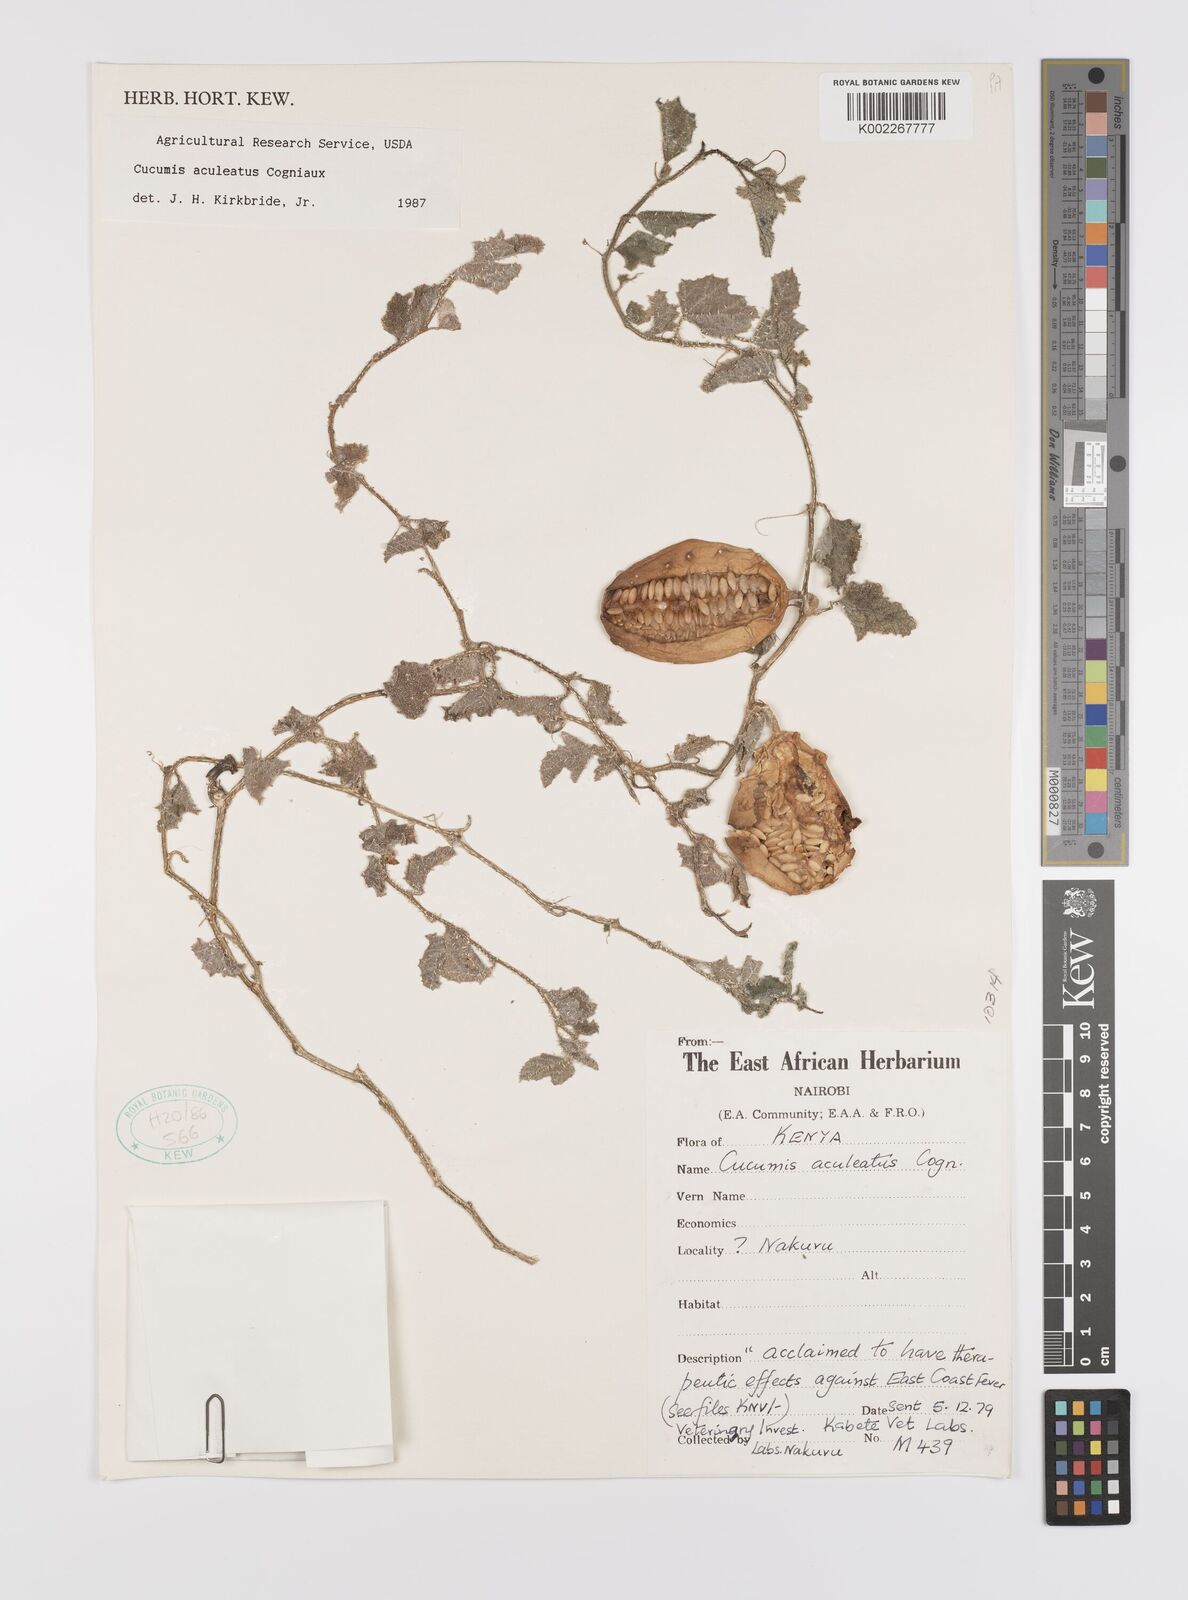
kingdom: Plantae
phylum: Tracheophyta
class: Magnoliopsida
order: Cucurbitales
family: Cucurbitaceae
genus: Cucumis
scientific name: Cucumis aculeatus
